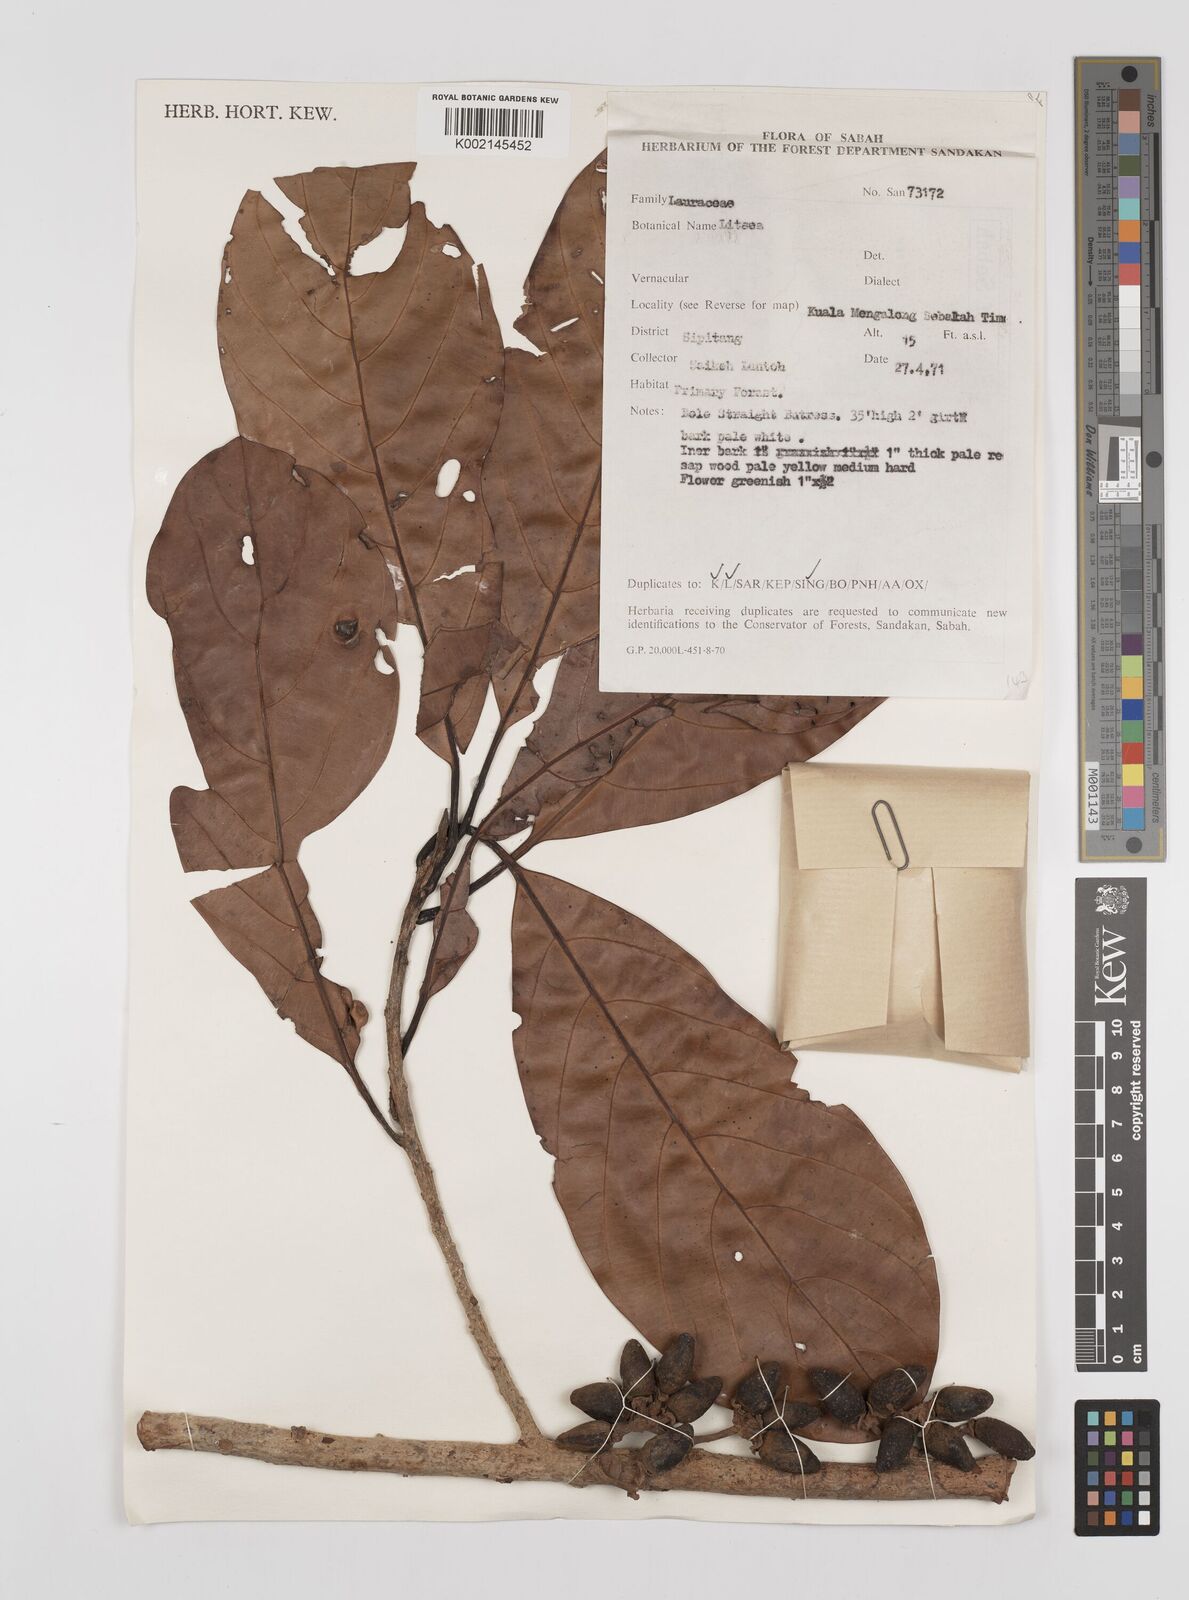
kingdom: Plantae
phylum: Tracheophyta
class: Magnoliopsida
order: Laurales
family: Lauraceae
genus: Litsea
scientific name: Litsea
